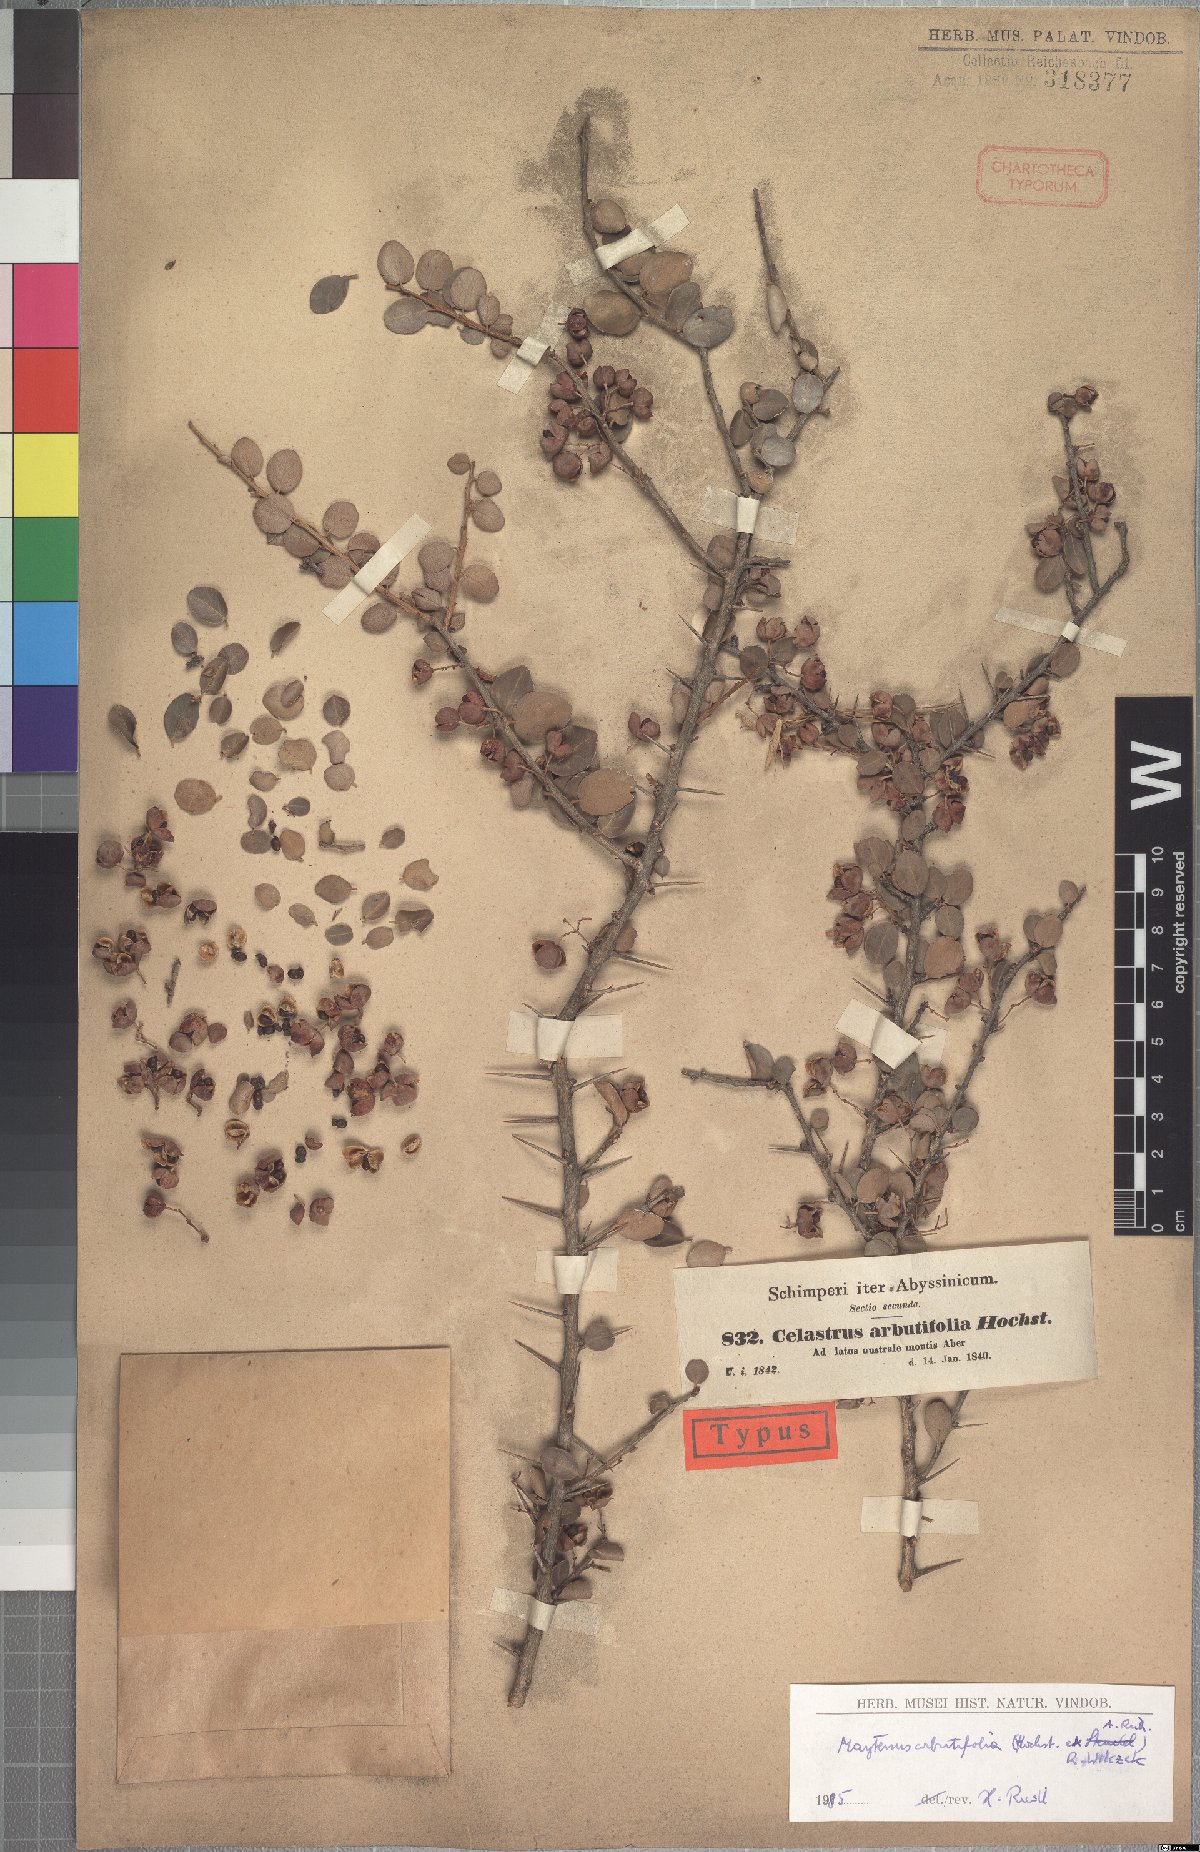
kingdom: Plantae
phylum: Tracheophyta
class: Magnoliopsida
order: Celastrales
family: Celastraceae
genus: Gymnosporia
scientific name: Gymnosporia arbutifolia
